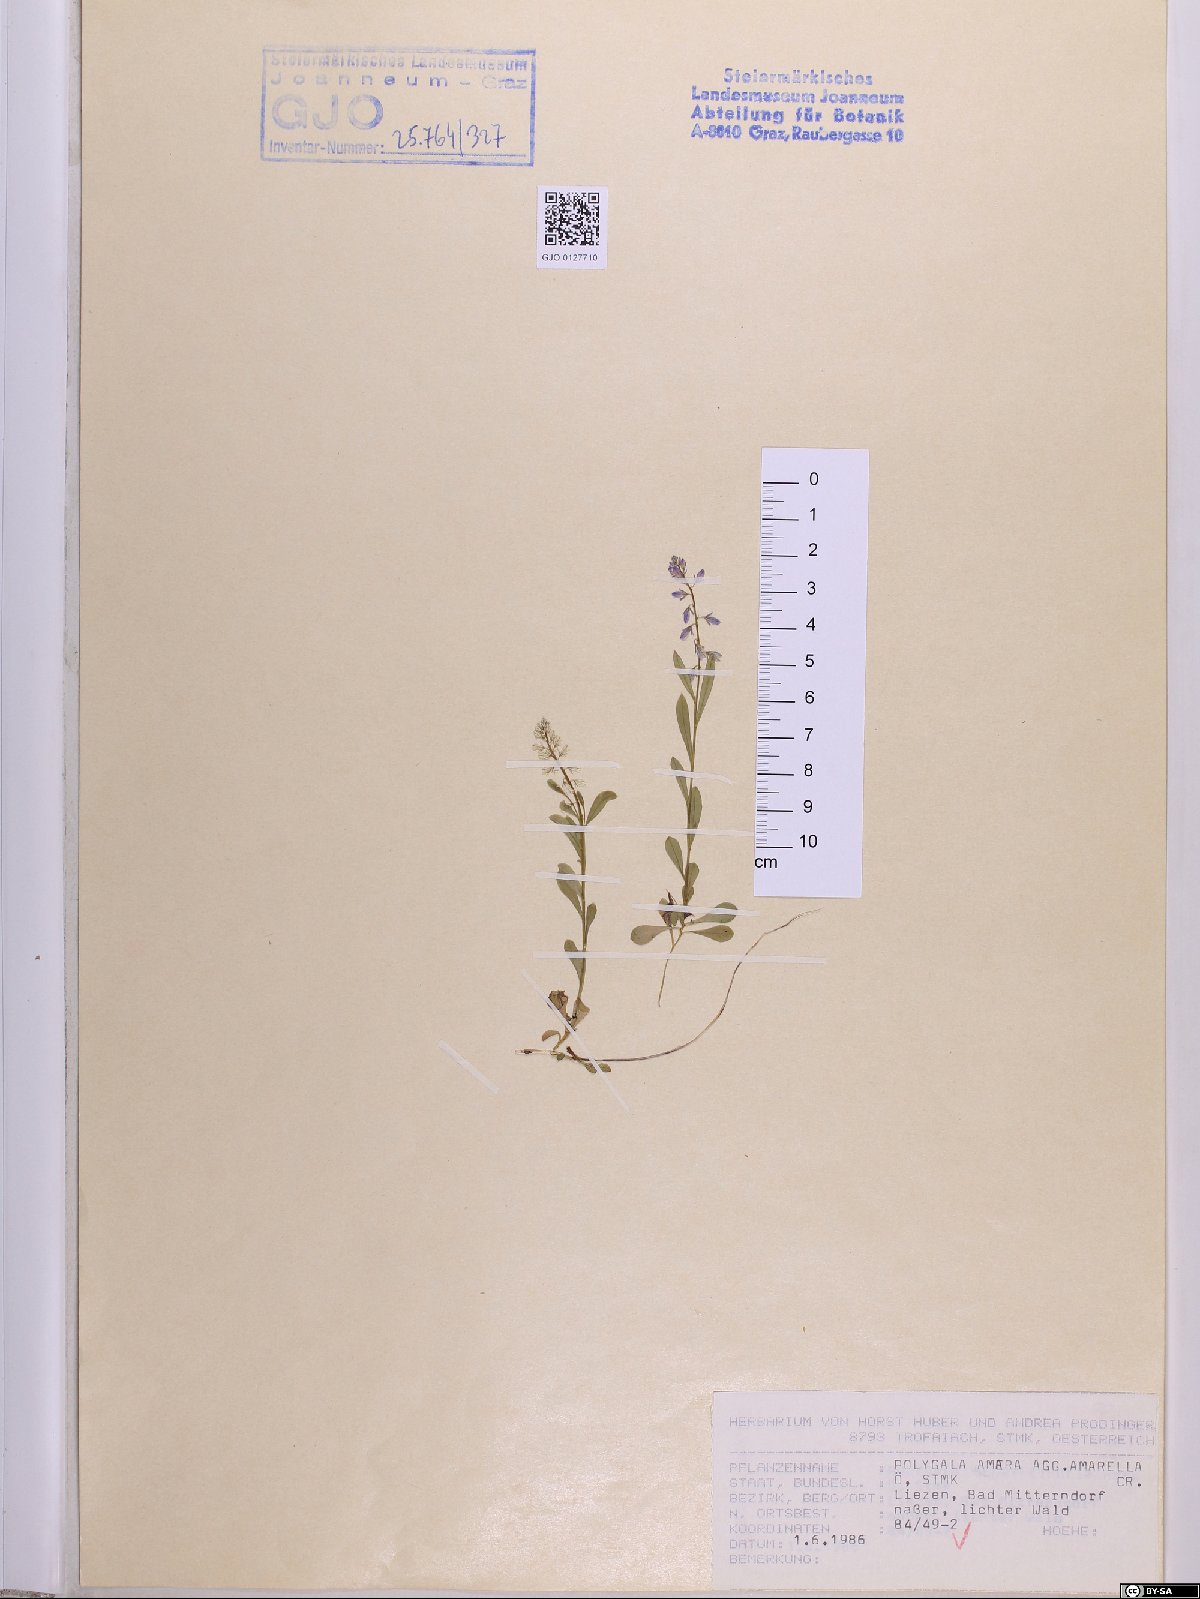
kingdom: Plantae
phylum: Tracheophyta
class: Magnoliopsida
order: Fabales
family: Polygalaceae
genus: Polygala
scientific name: Polygala amarella
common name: Dwarf milkwort
